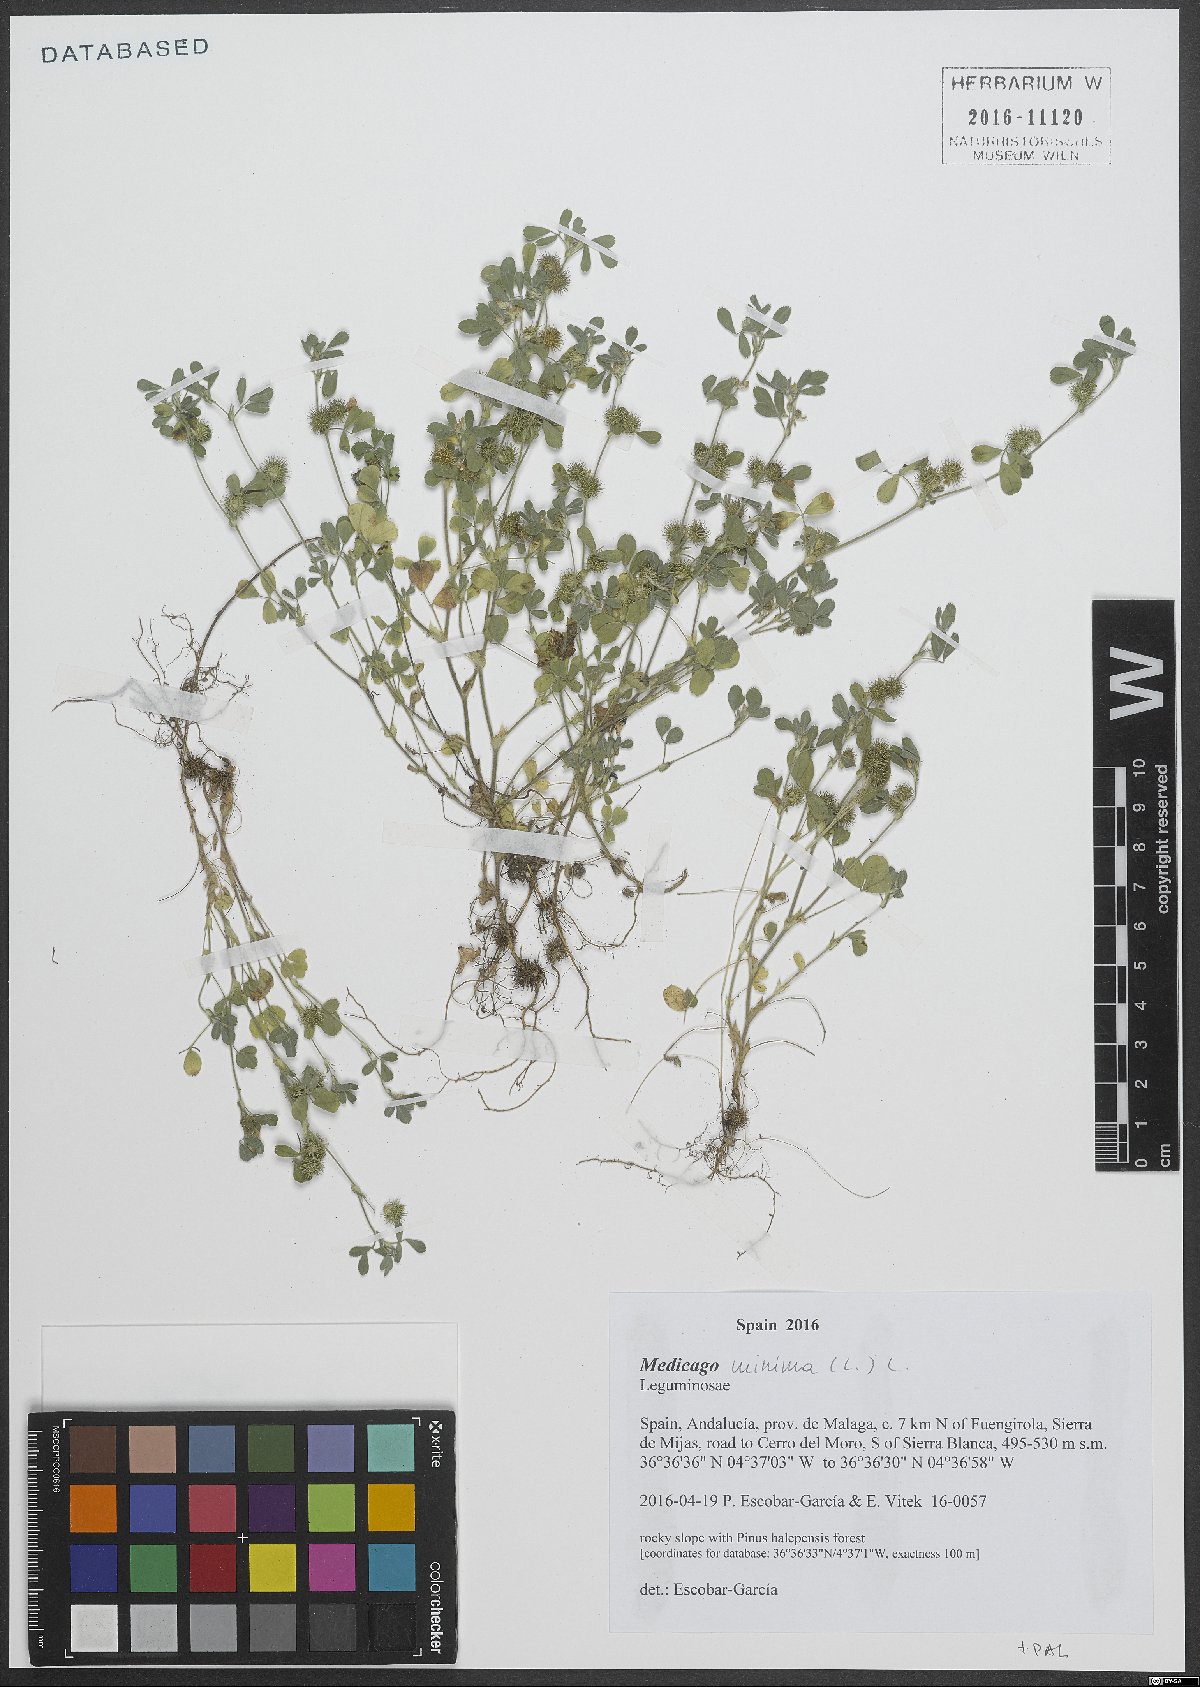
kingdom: Plantae
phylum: Tracheophyta
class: Magnoliopsida
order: Fabales
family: Fabaceae
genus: Medicago
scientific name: Medicago minima
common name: Little bur-clover
